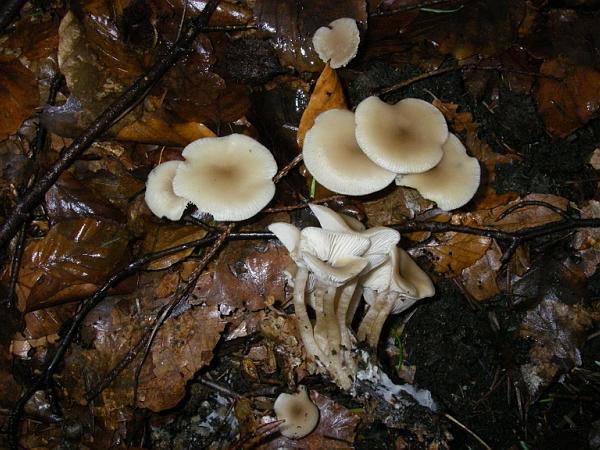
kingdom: Fungi
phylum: Basidiomycota
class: Agaricomycetes
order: Agaricales
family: Tricholomataceae
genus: Clitocybe
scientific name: Clitocybe fragrans
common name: vellugtende tragthat
